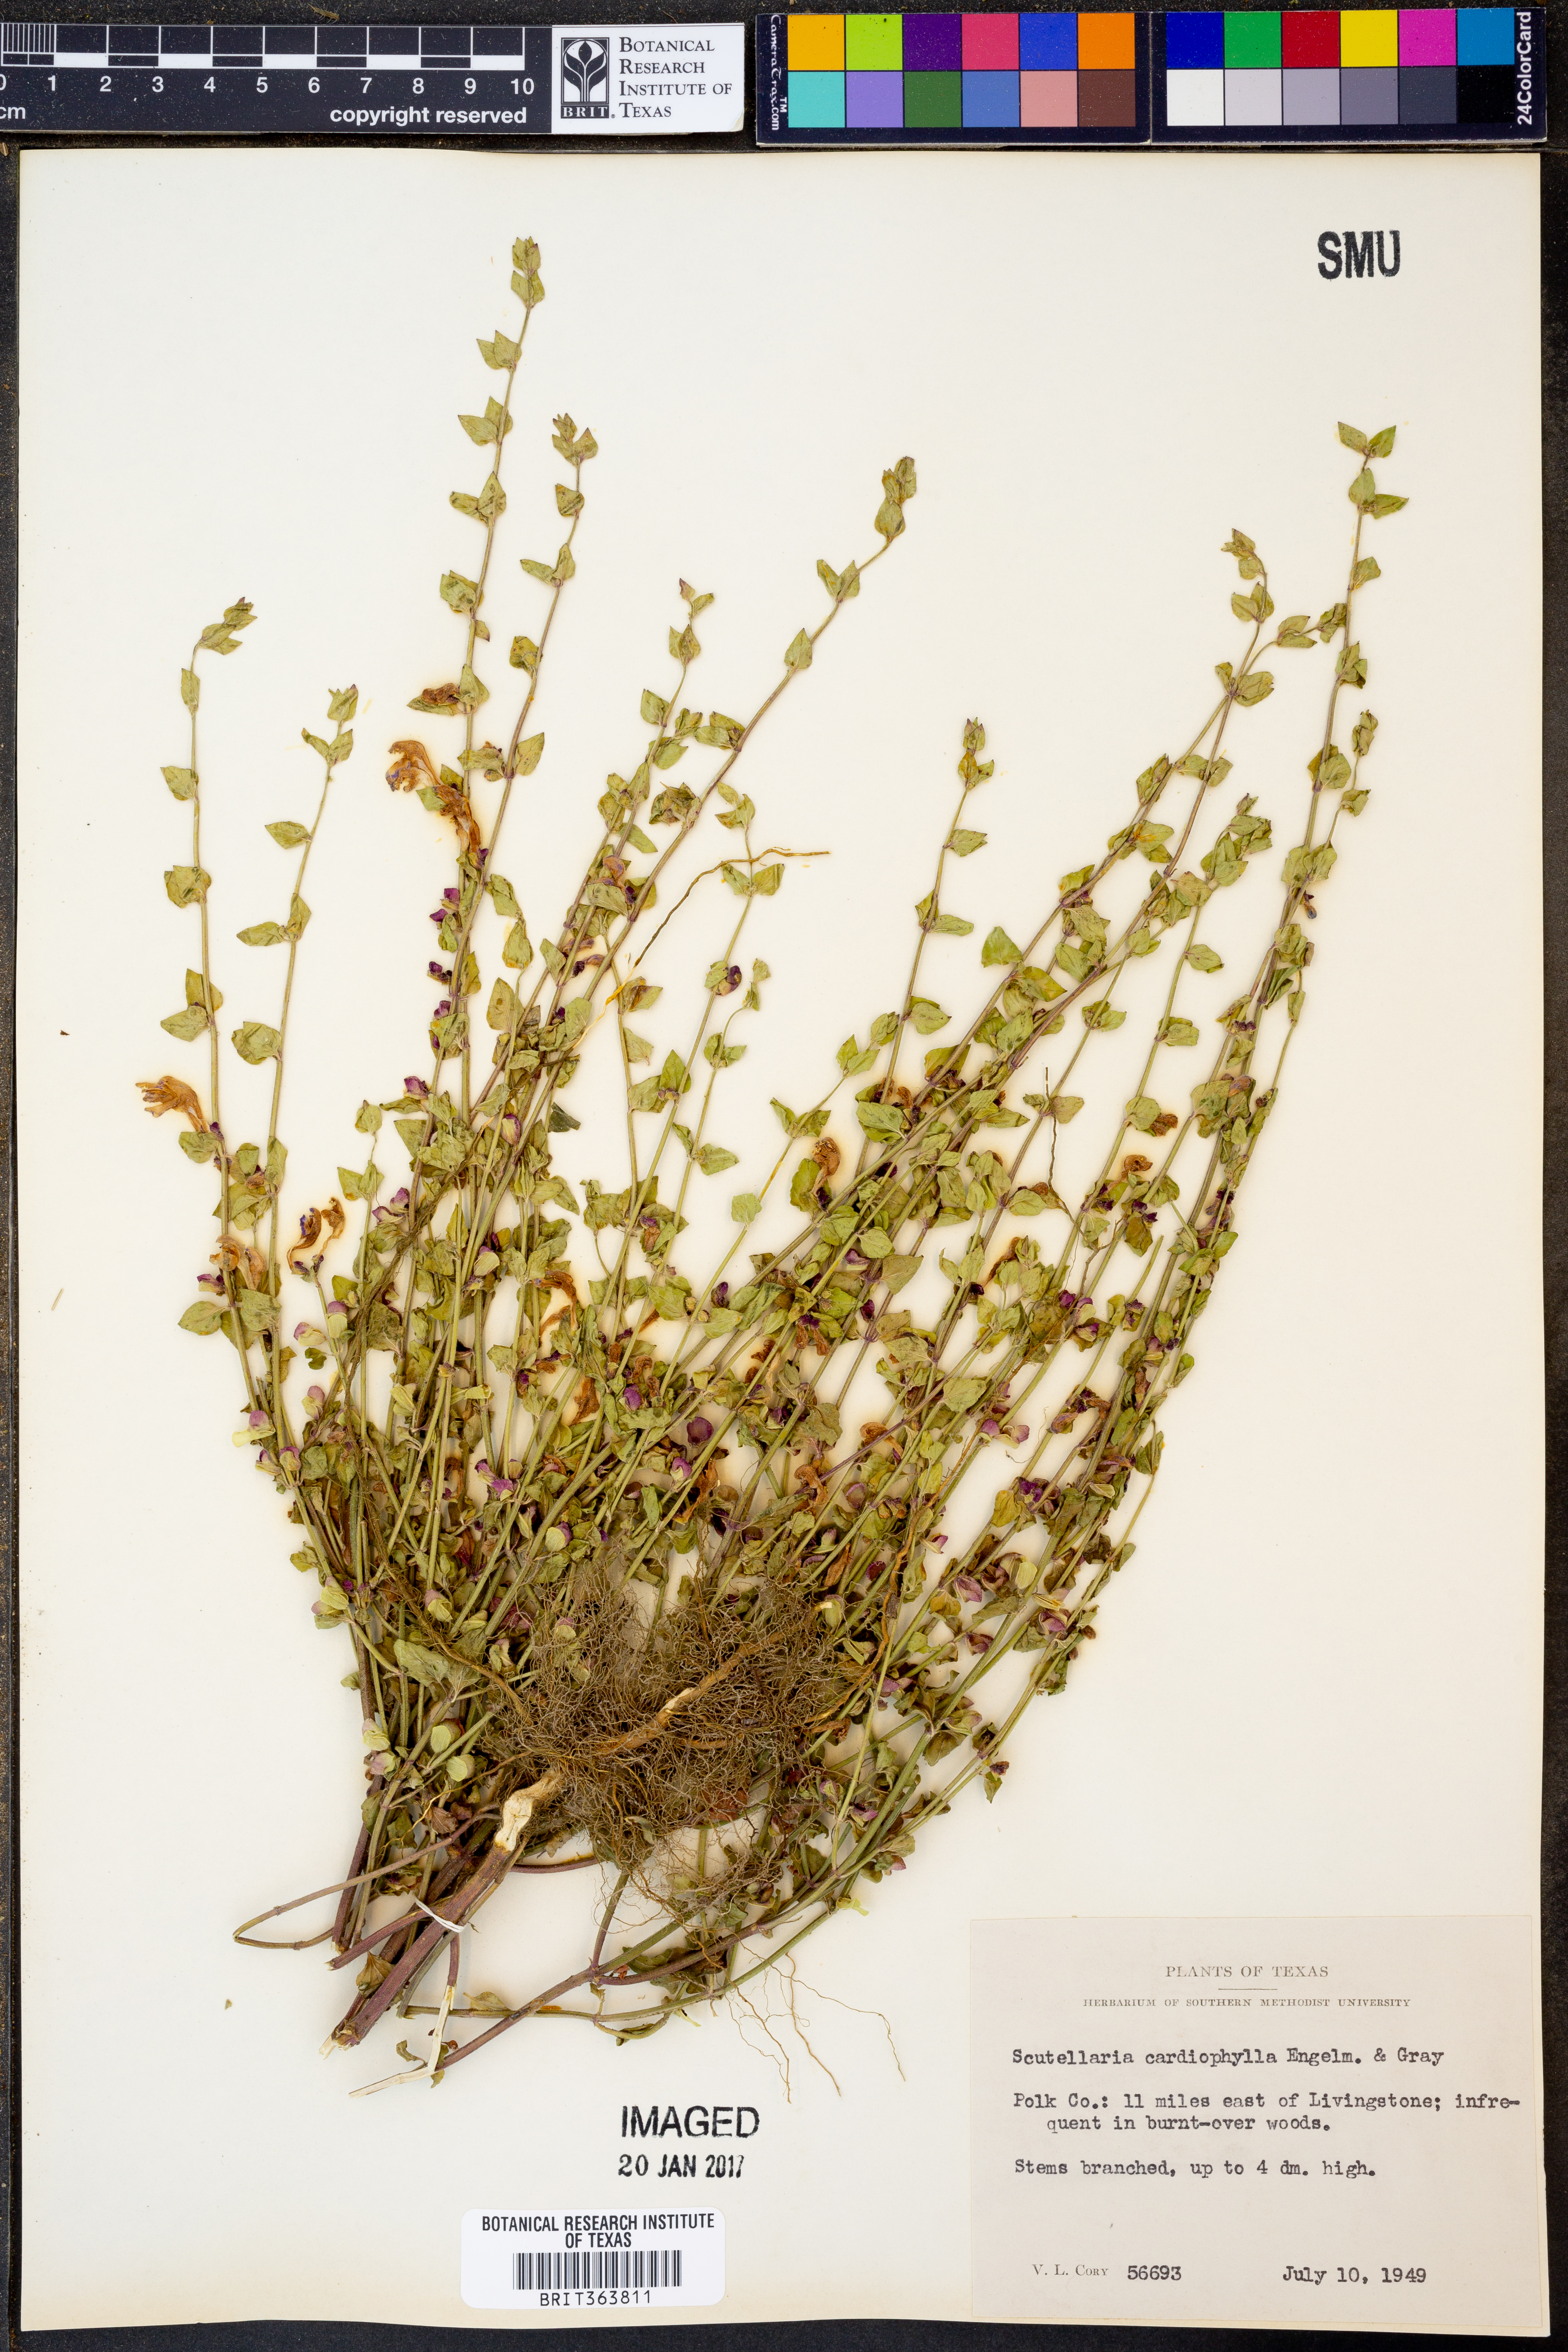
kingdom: Plantae
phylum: Tracheophyta
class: Magnoliopsida
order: Lamiales
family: Lamiaceae
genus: Scutellaria
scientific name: Scutellaria cardiophylla
